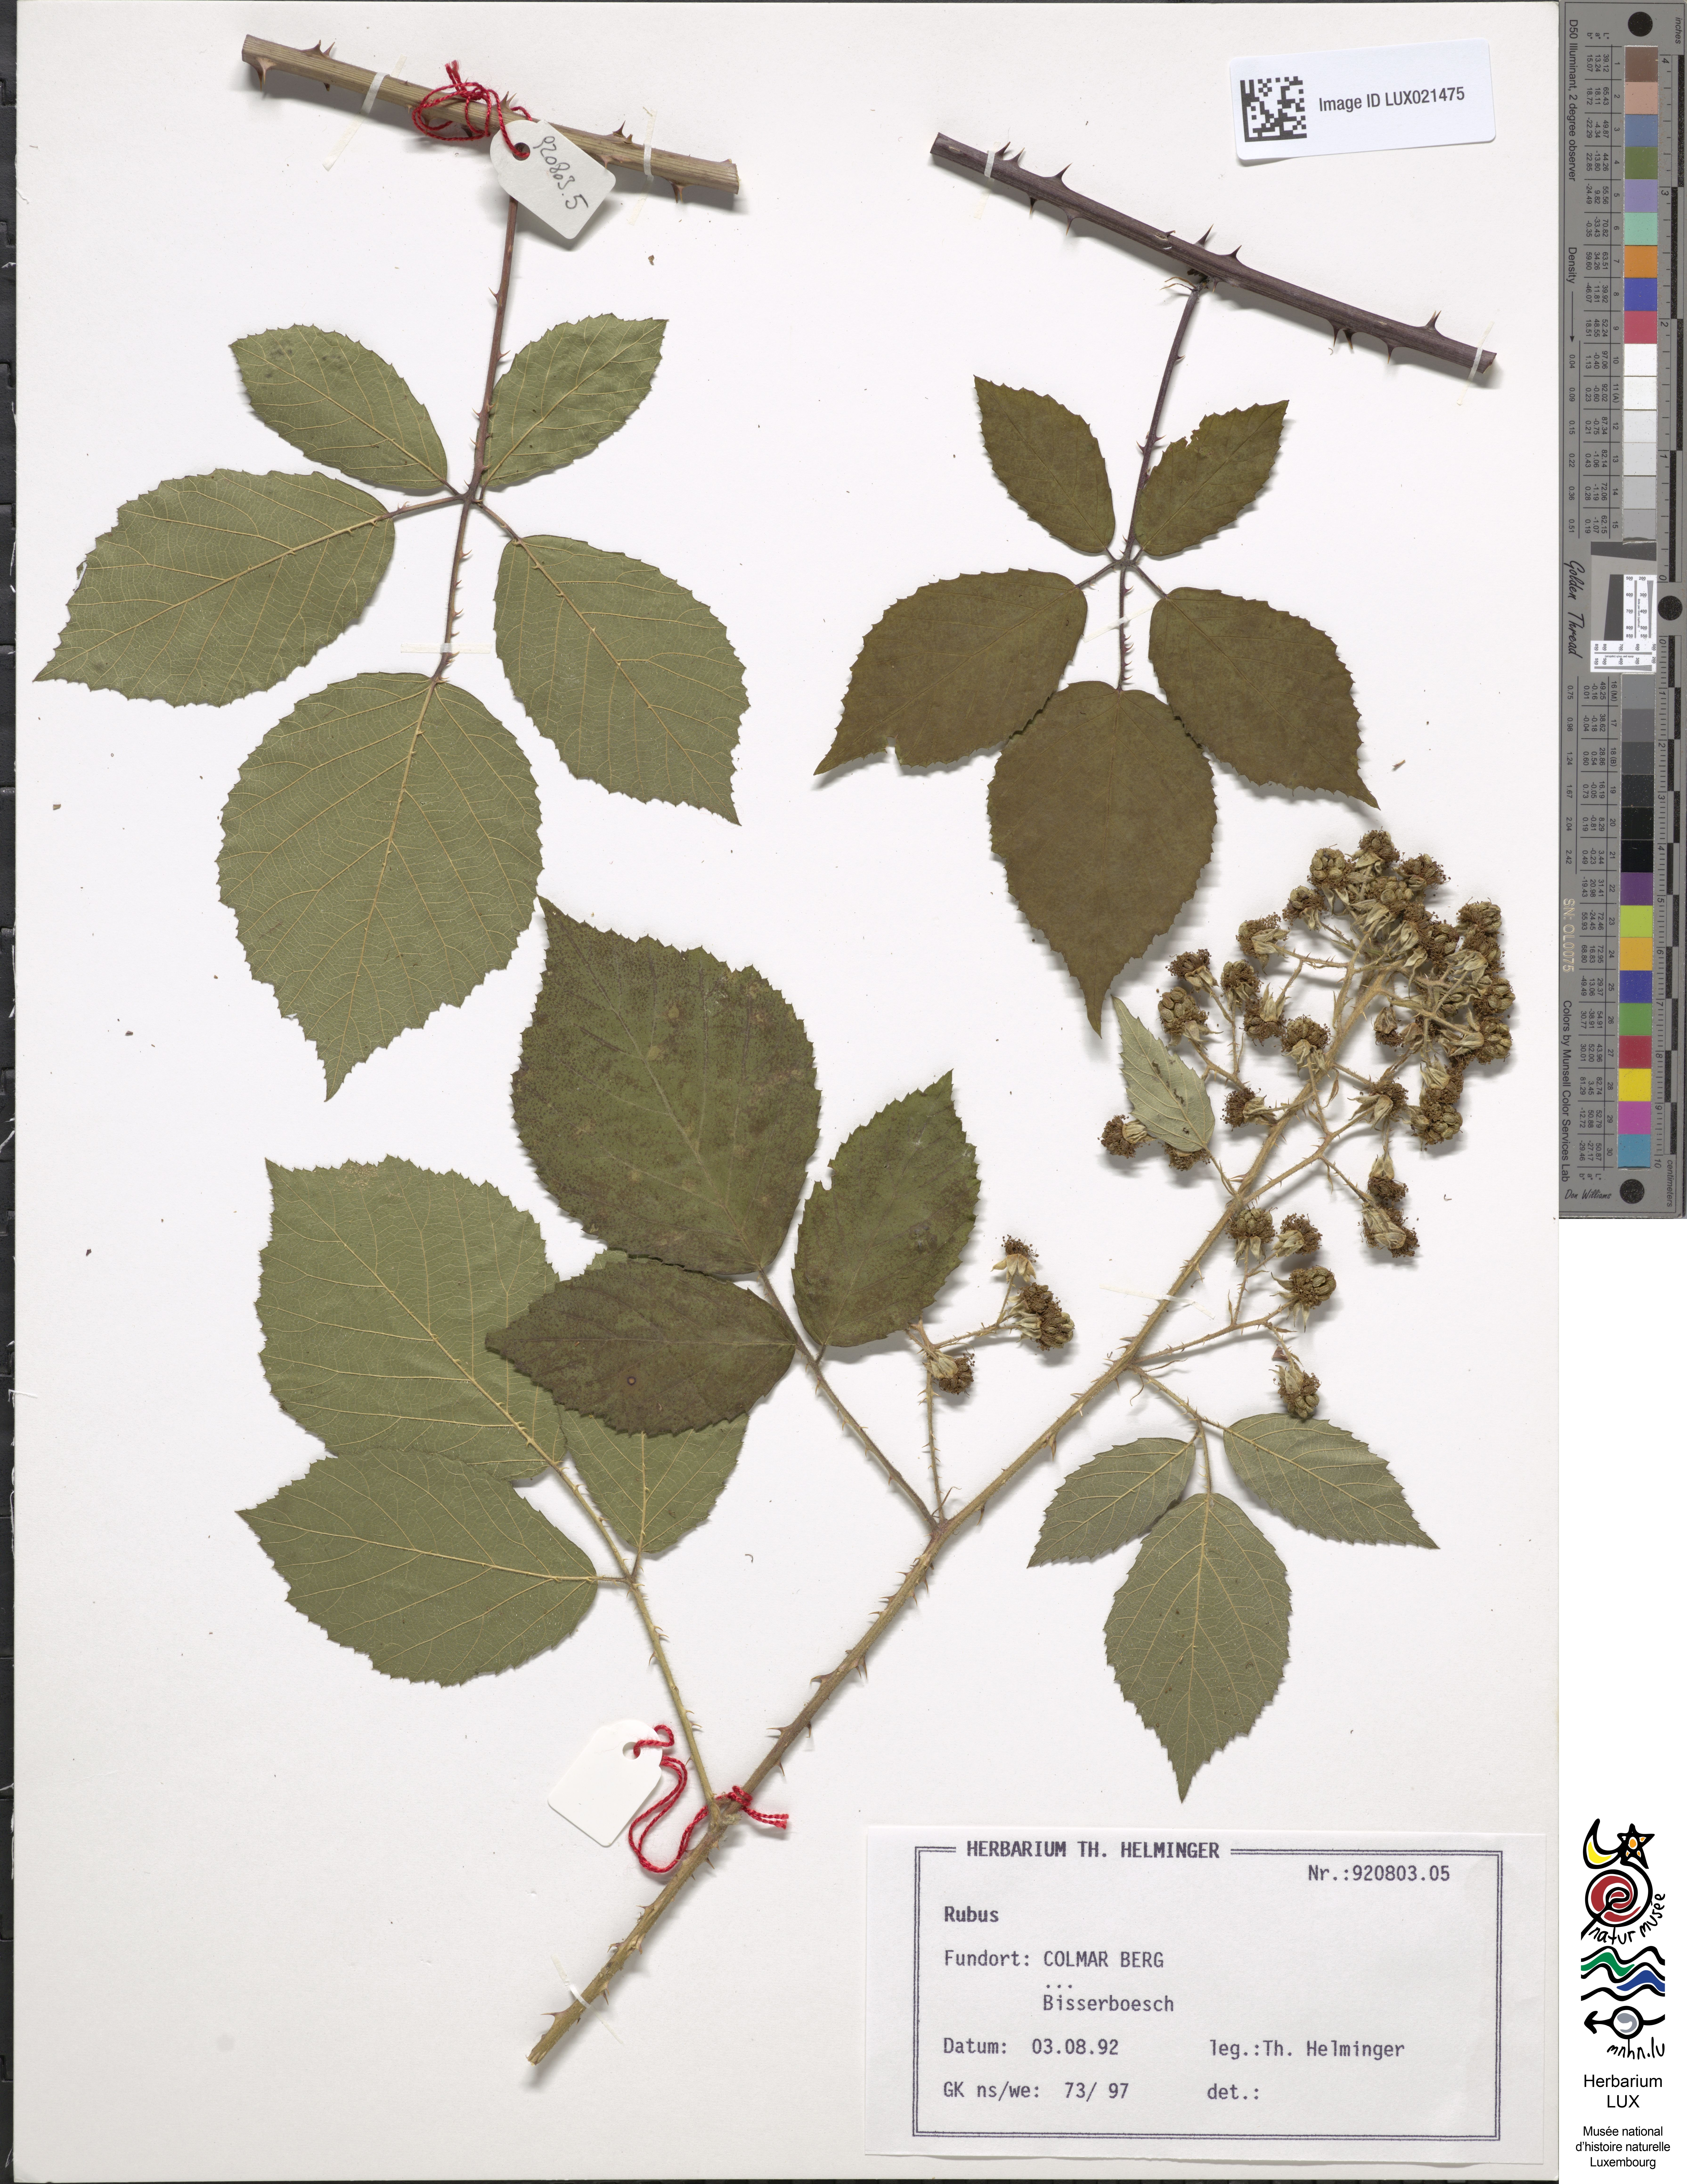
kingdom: Plantae
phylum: Tracheophyta
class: Magnoliopsida
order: Rosales
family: Rosaceae
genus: Rubus
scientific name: Rubus
